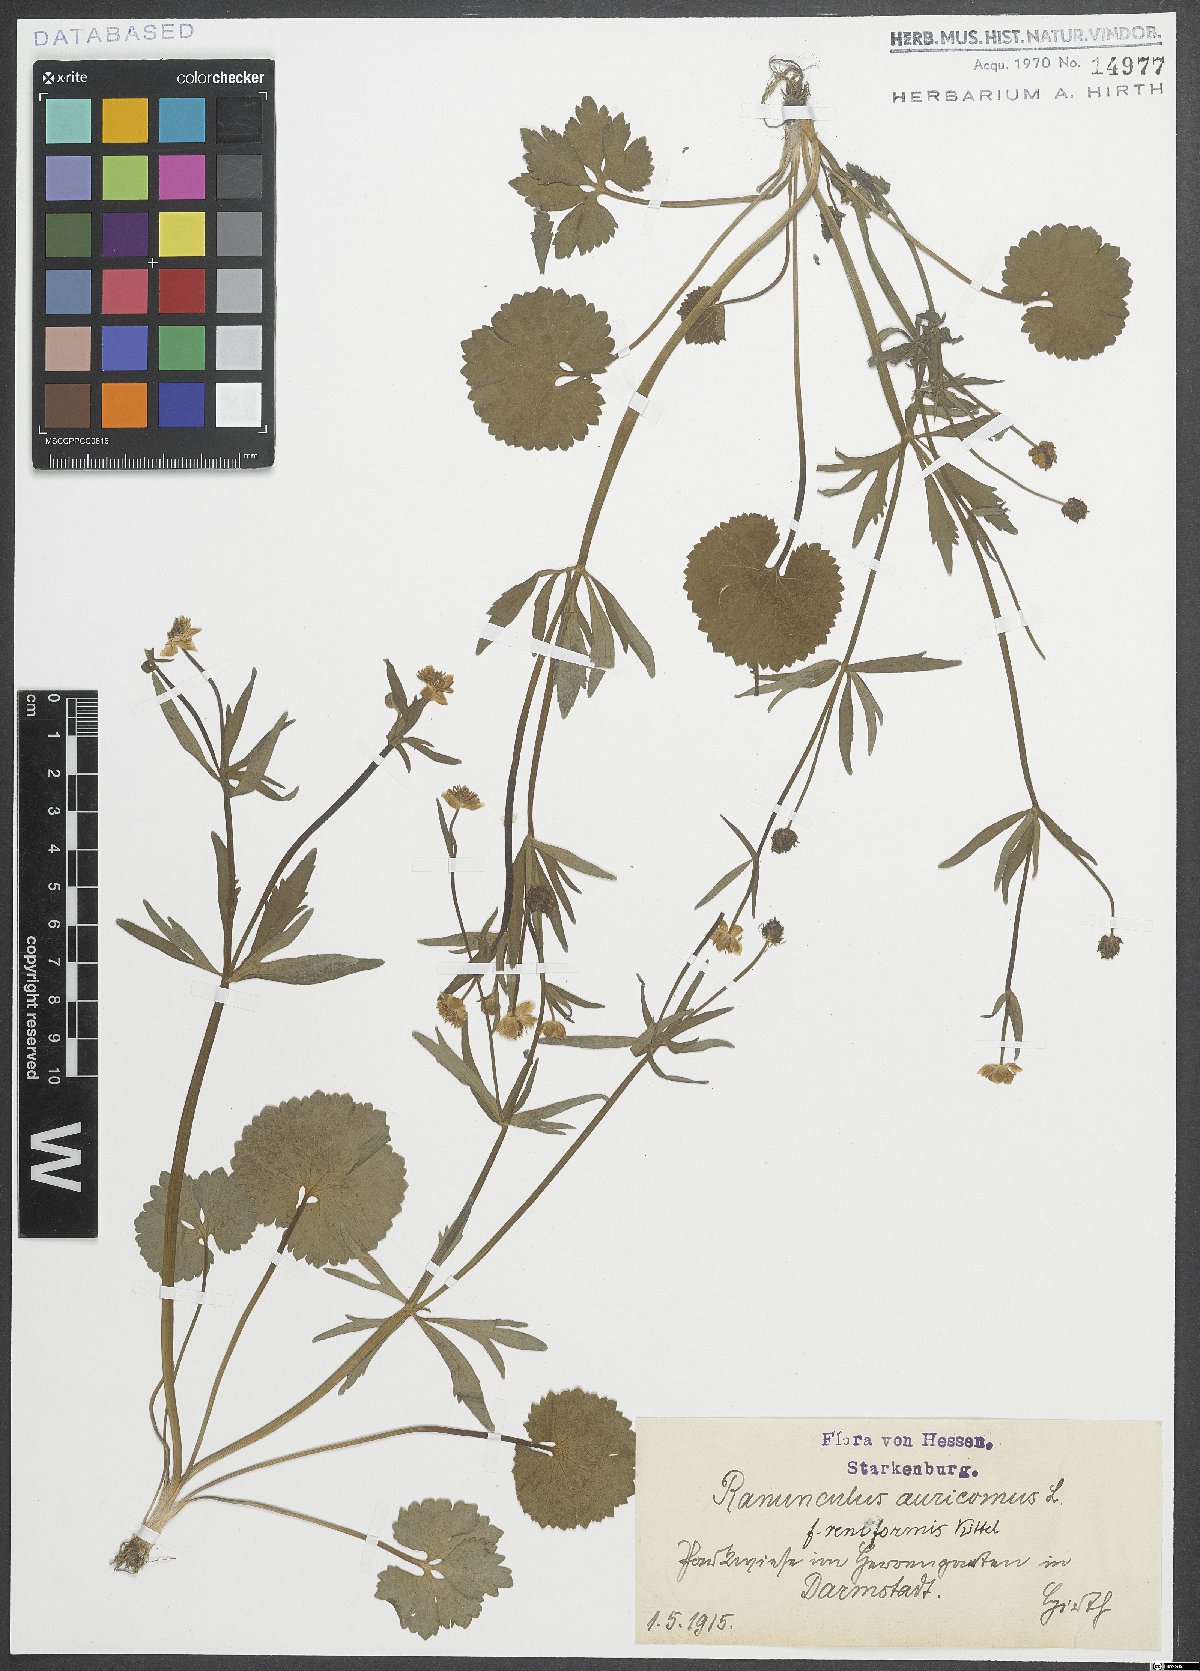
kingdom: Plantae
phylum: Tracheophyta
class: Magnoliopsida
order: Ranunculales
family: Ranunculaceae
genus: Ranunculus
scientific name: Ranunculus auricomus
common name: Goldilocks buttercup
